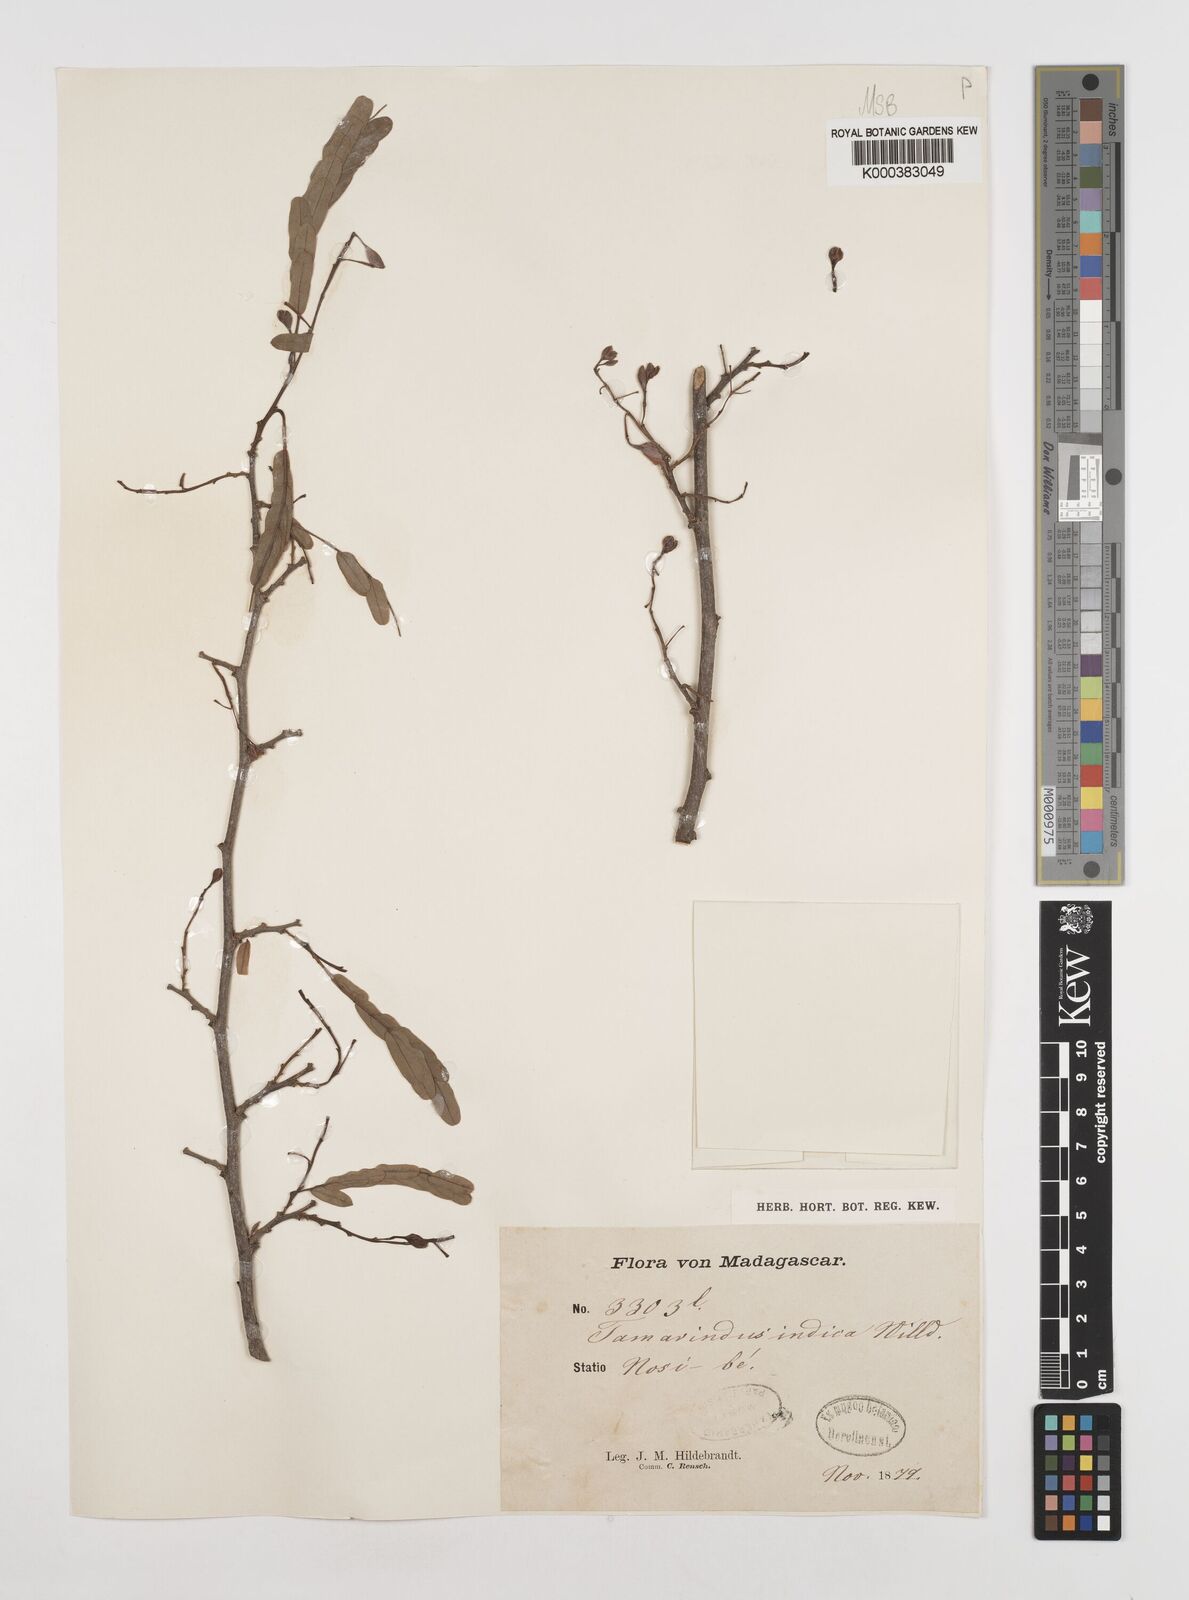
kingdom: Plantae
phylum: Tracheophyta
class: Magnoliopsida
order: Fabales
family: Fabaceae
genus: Tamarindus
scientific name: Tamarindus indica
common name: Tamarind
